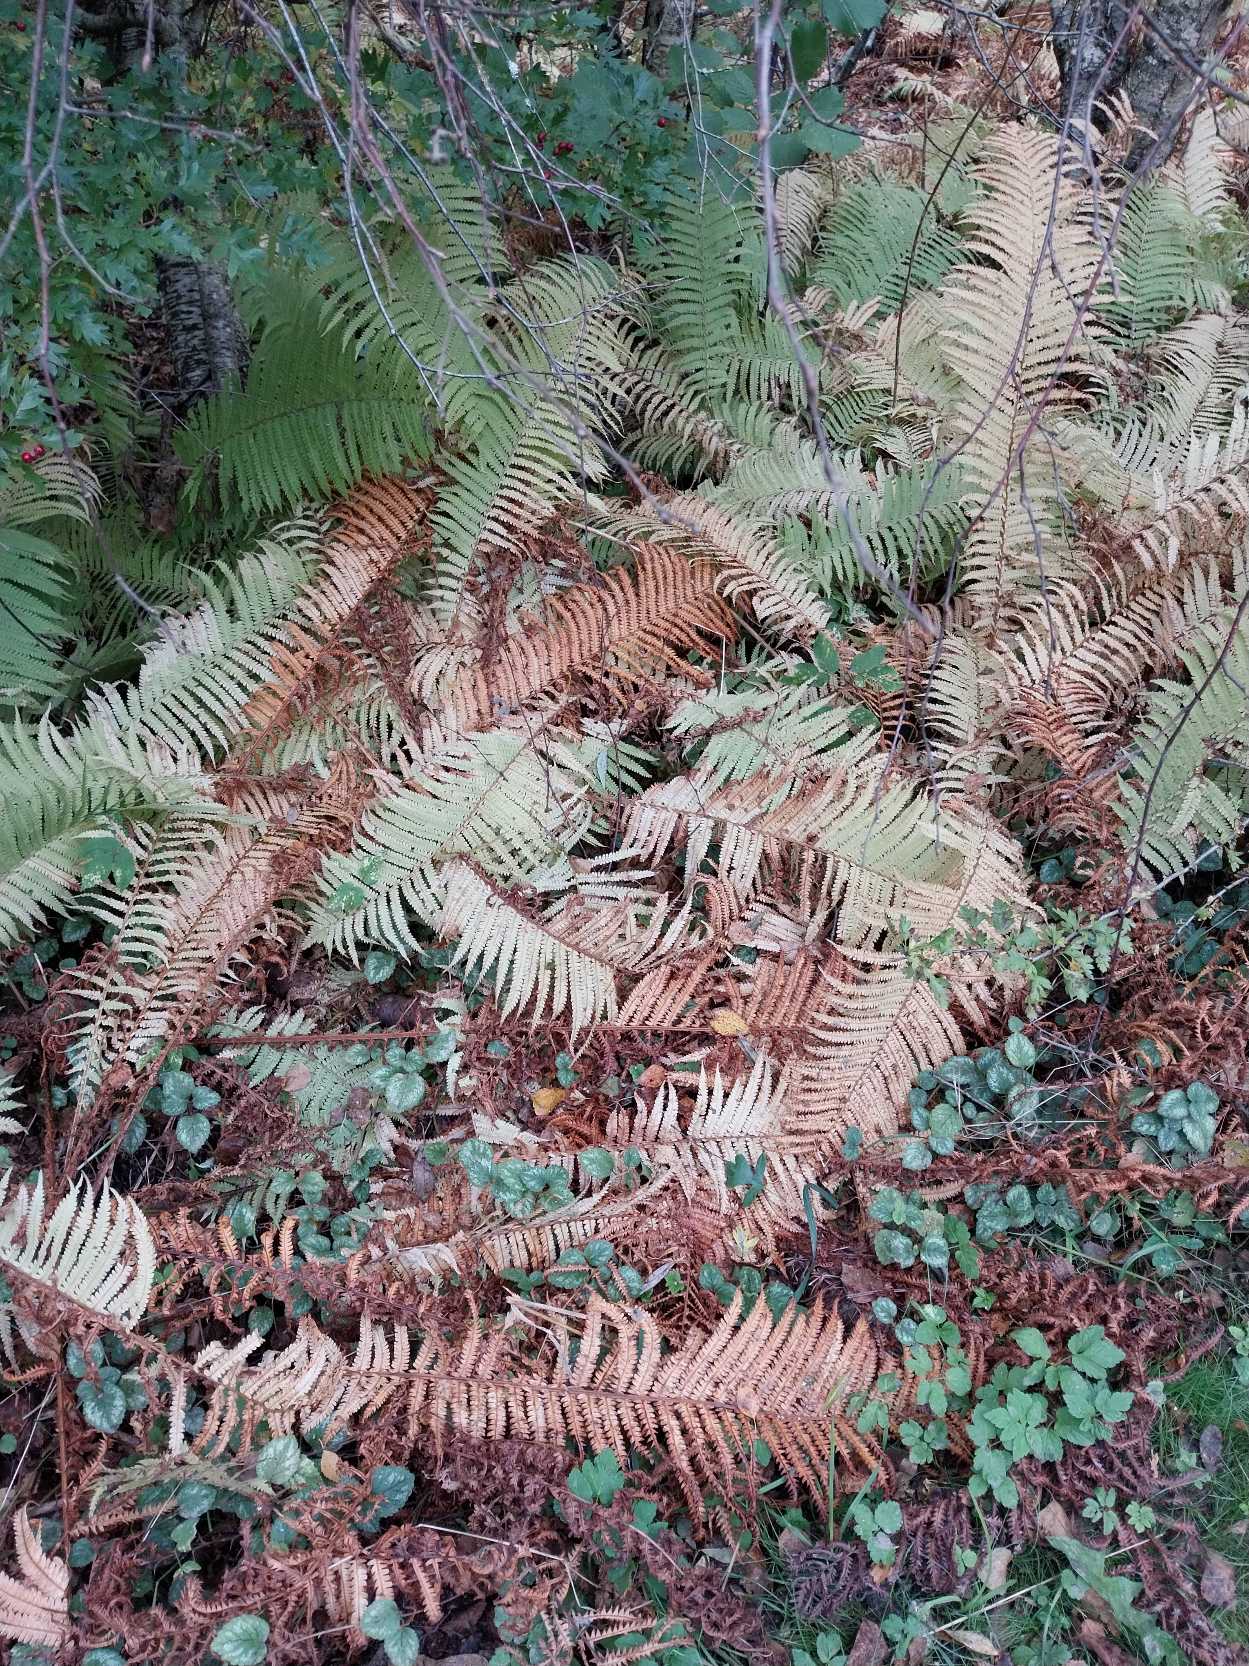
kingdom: Plantae
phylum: Tracheophyta
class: Polypodiopsida
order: Polypodiales
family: Onocleaceae
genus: Matteuccia
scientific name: Matteuccia struthiopteris
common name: Strudsvinge
